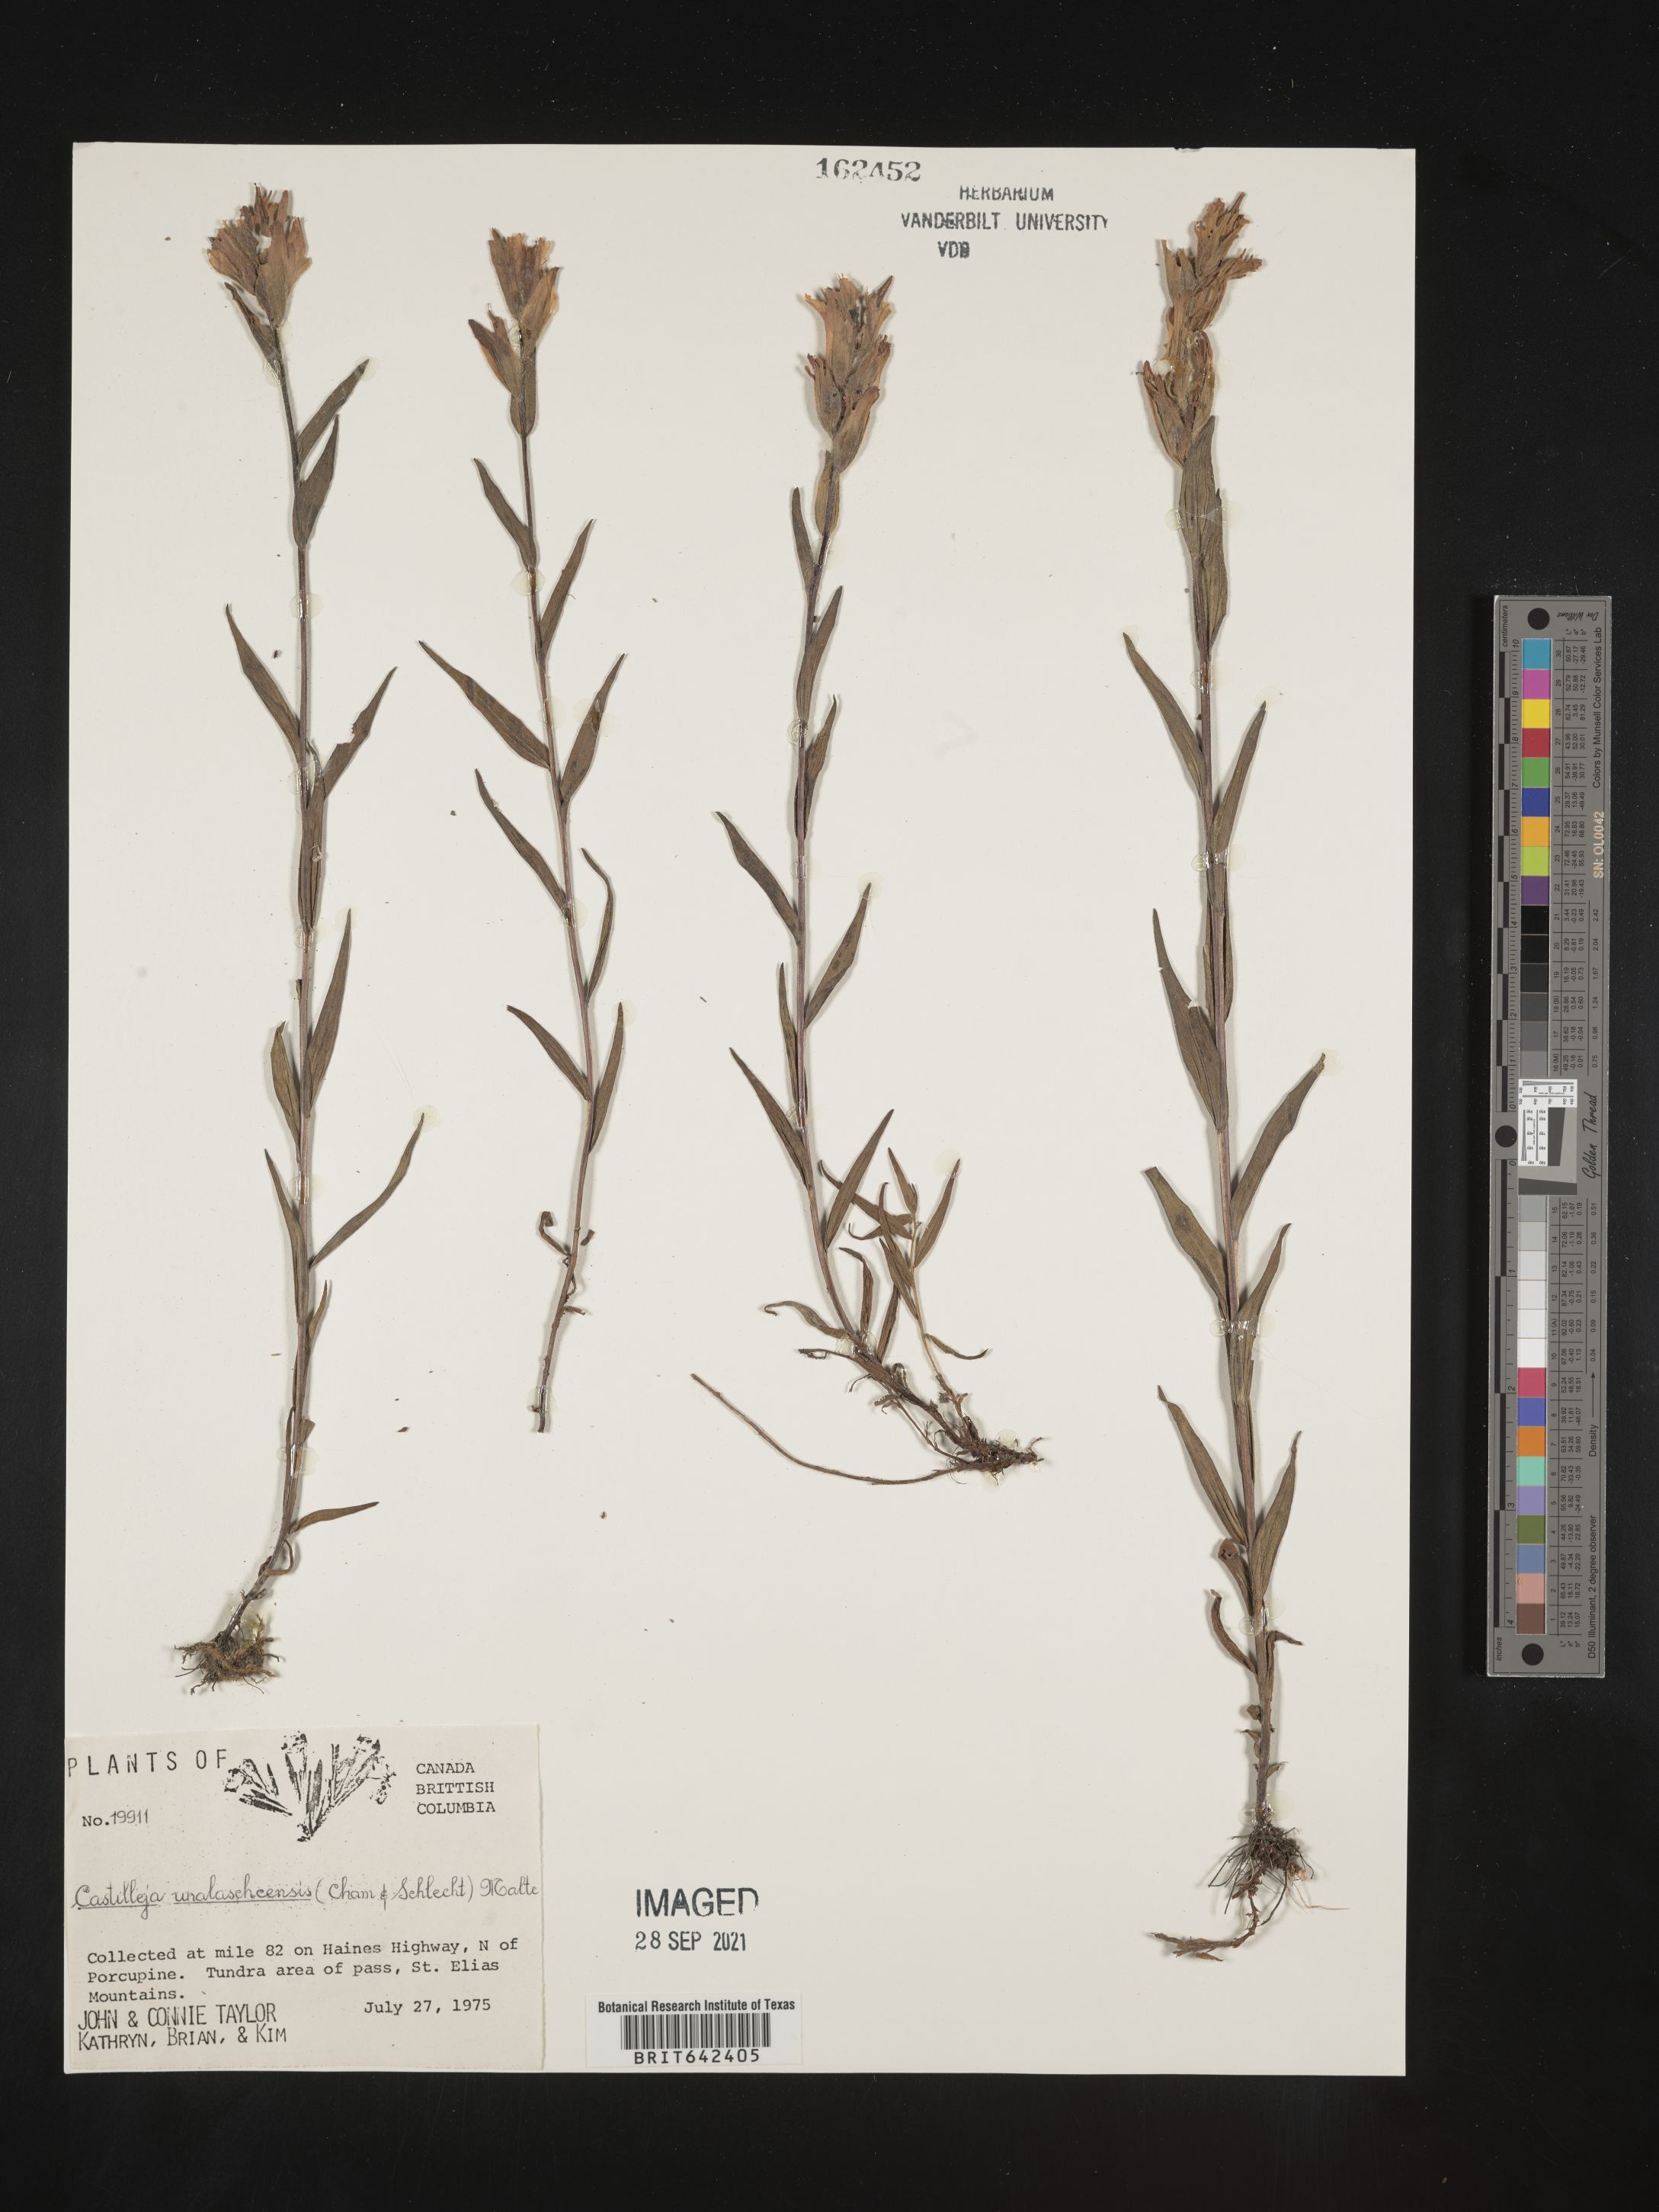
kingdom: Plantae
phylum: Tracheophyta
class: Magnoliopsida
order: Lamiales
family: Orobanchaceae
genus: Castilleja
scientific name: Castilleja
